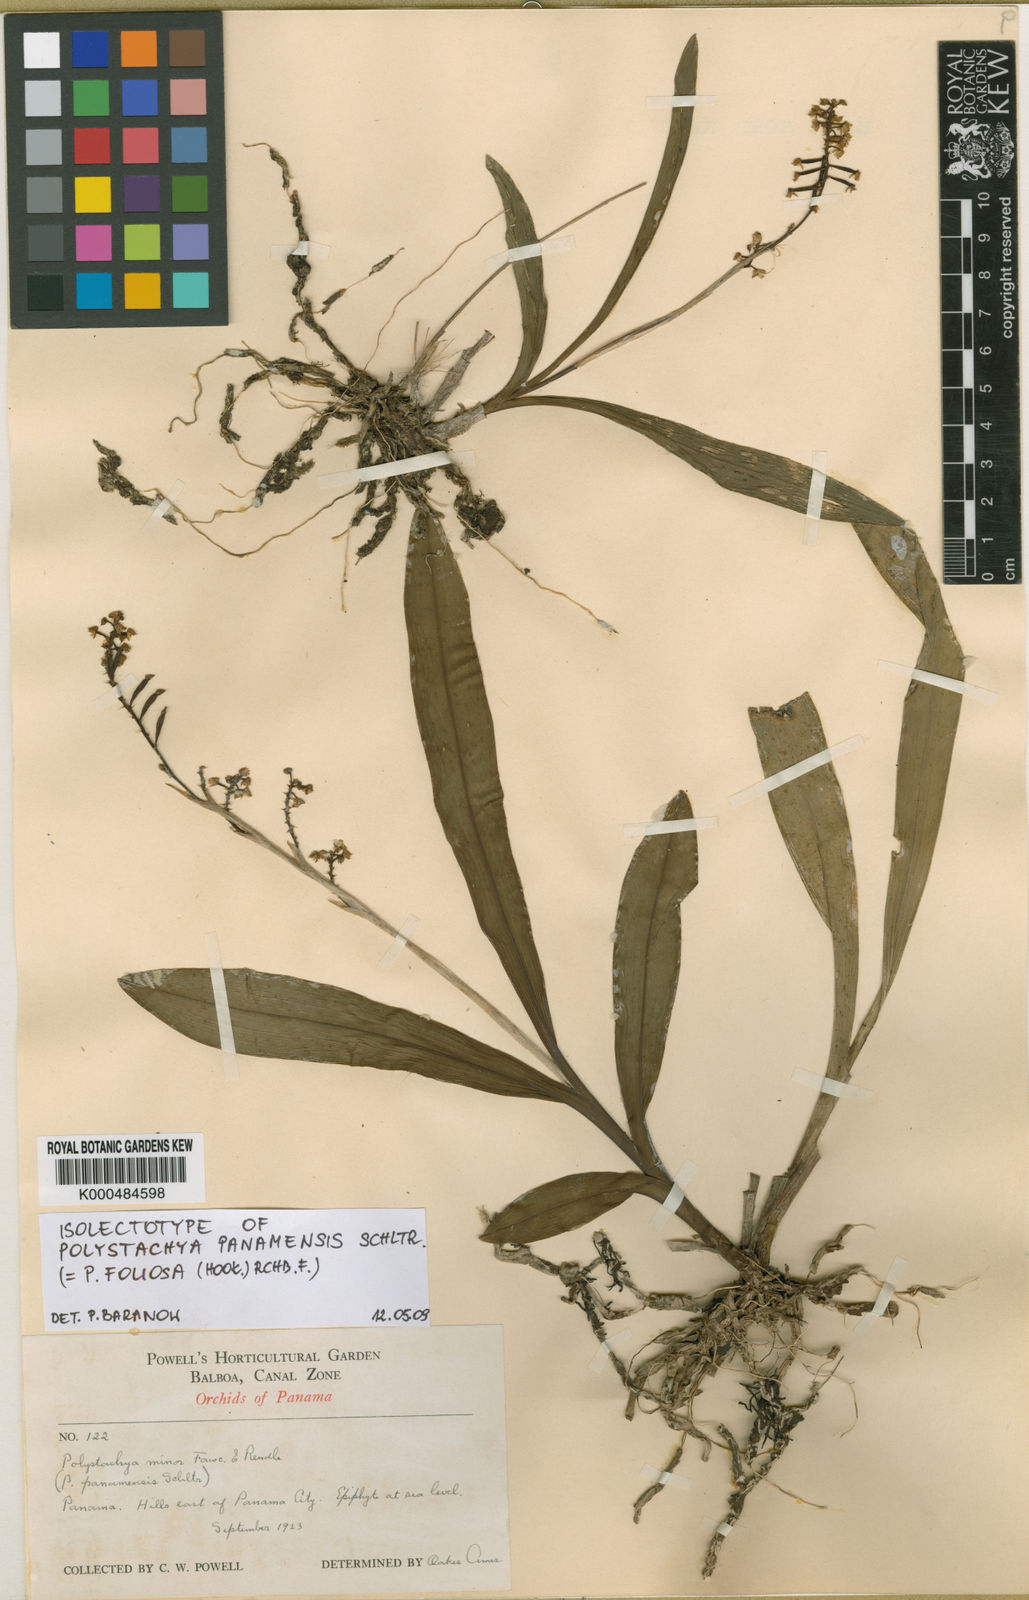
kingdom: Plantae
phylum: Tracheophyta
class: Liliopsida
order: Asparagales
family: Orchidaceae
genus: Polystachya
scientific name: Polystachya foliosa
